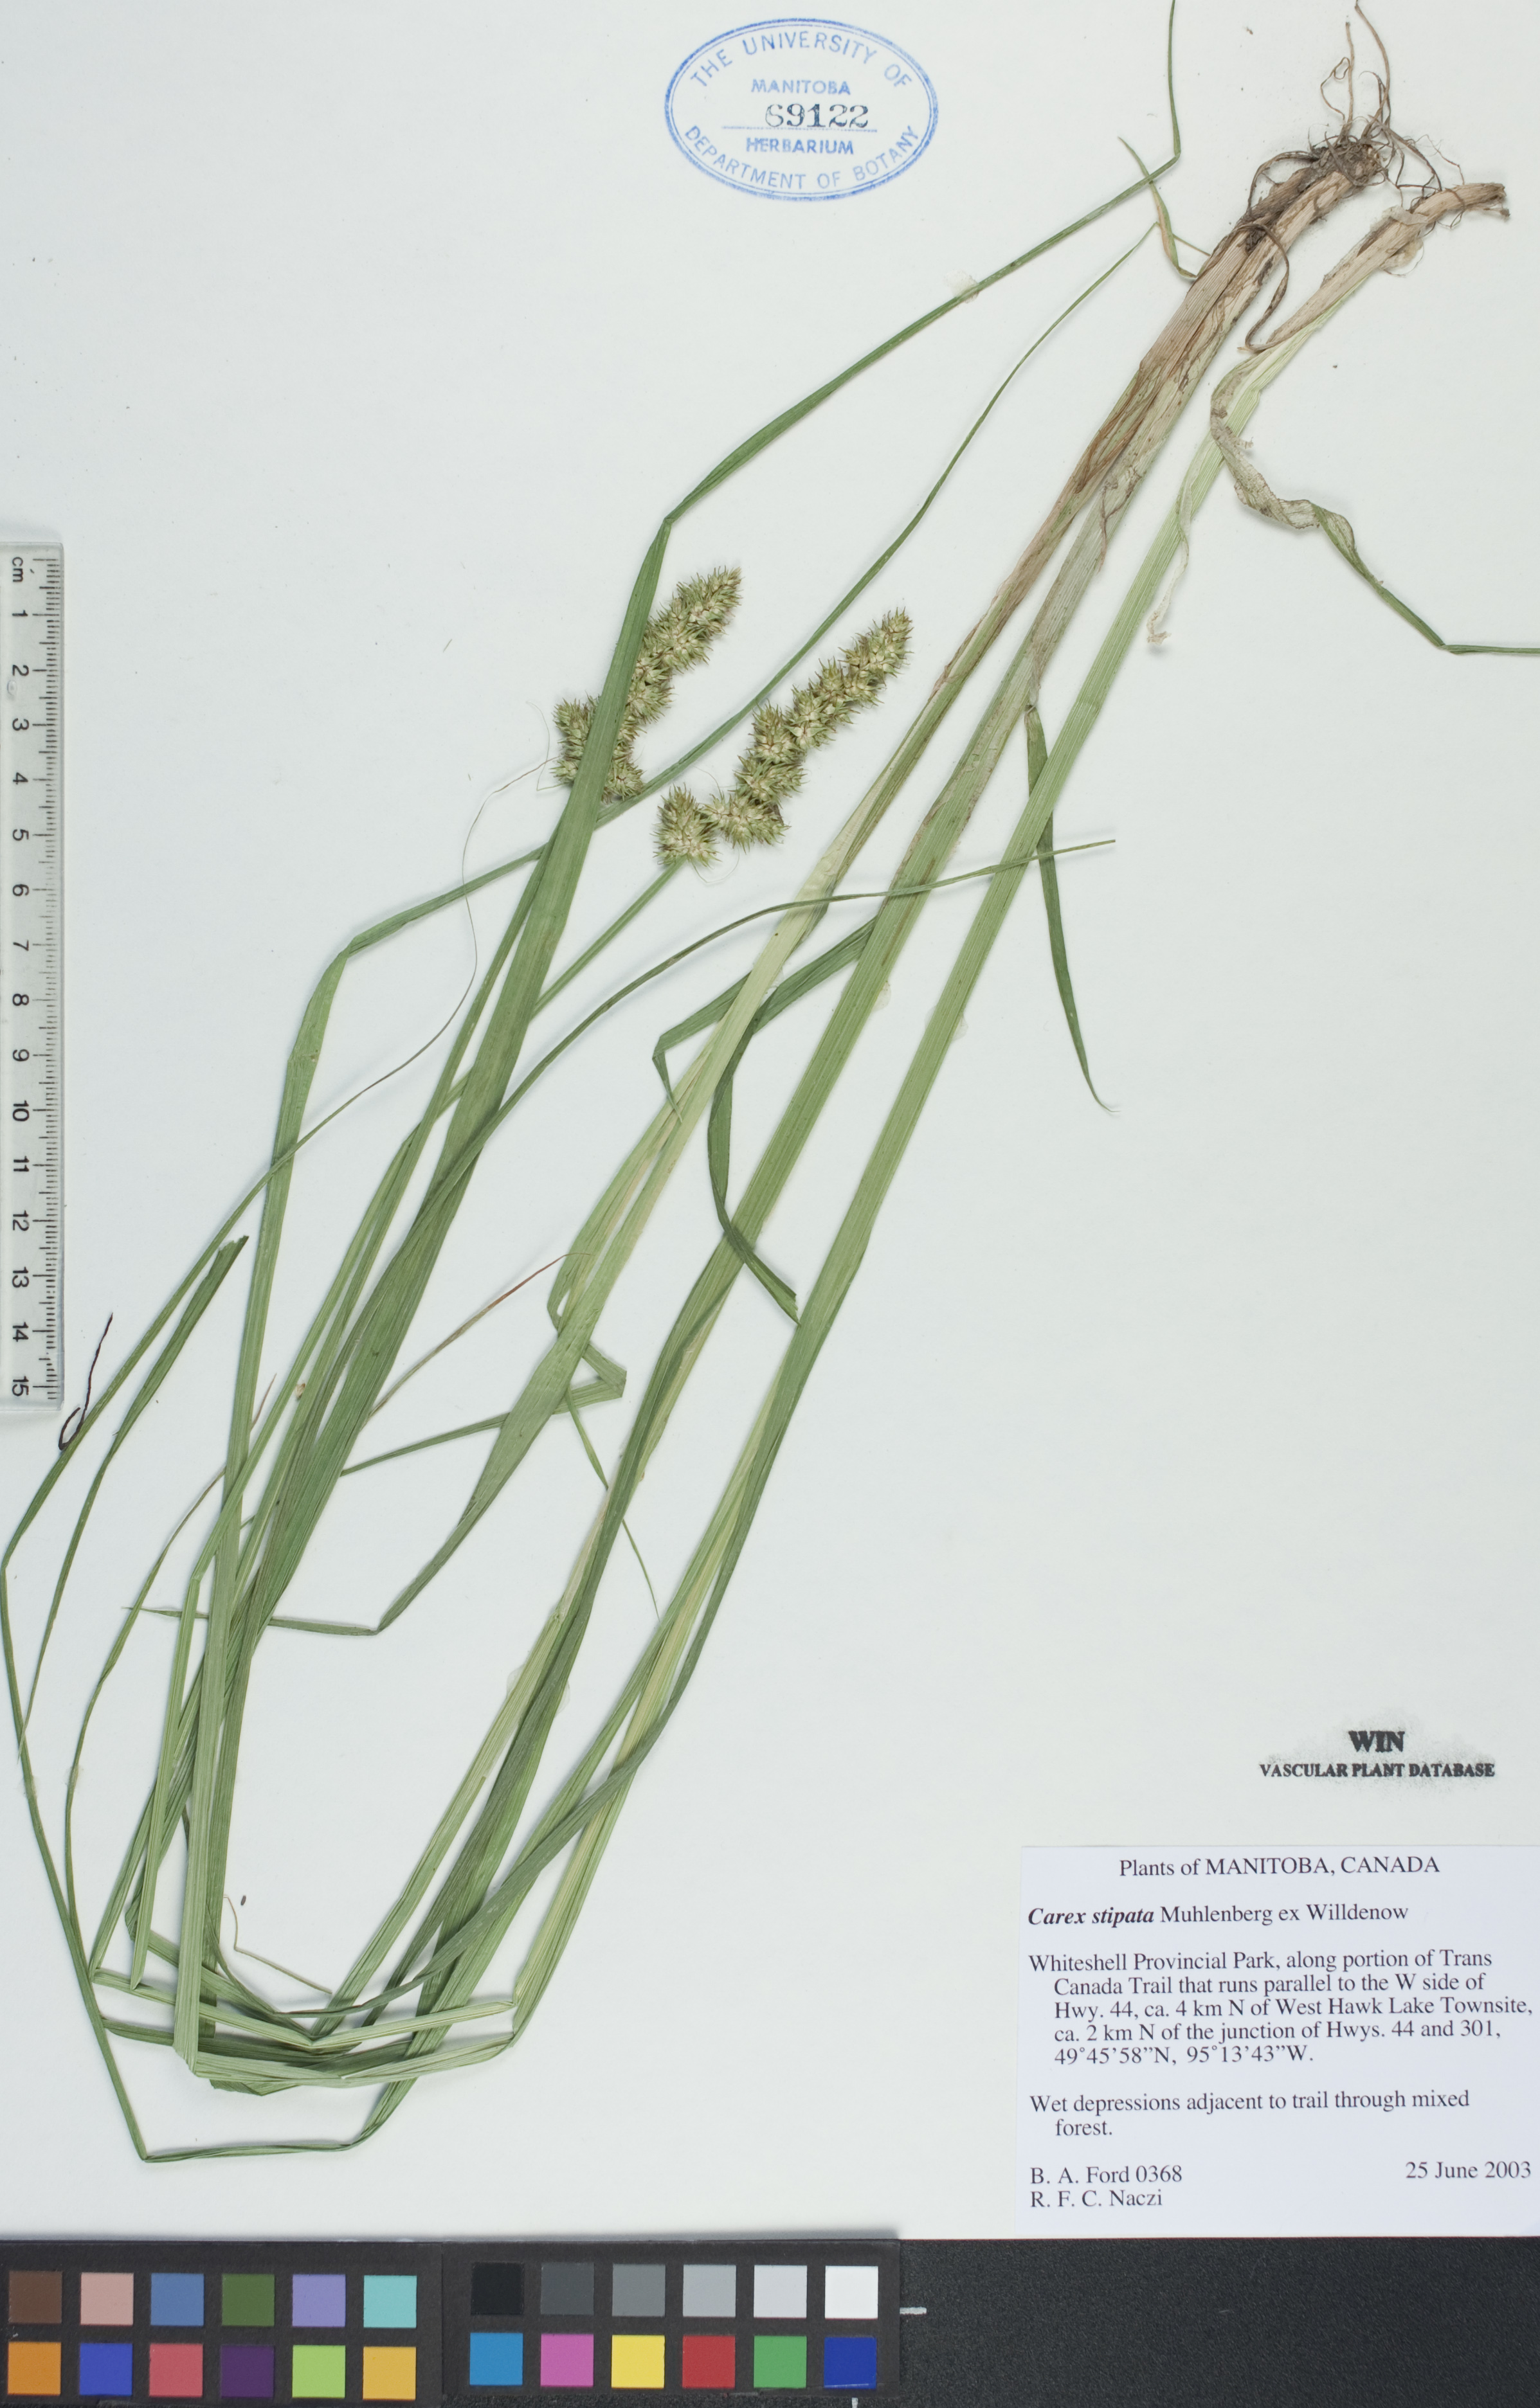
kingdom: Plantae
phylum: Tracheophyta
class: Liliopsida
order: Poales
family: Cyperaceae
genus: Carex
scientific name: Carex stipata
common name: Awl-fruited sedge
